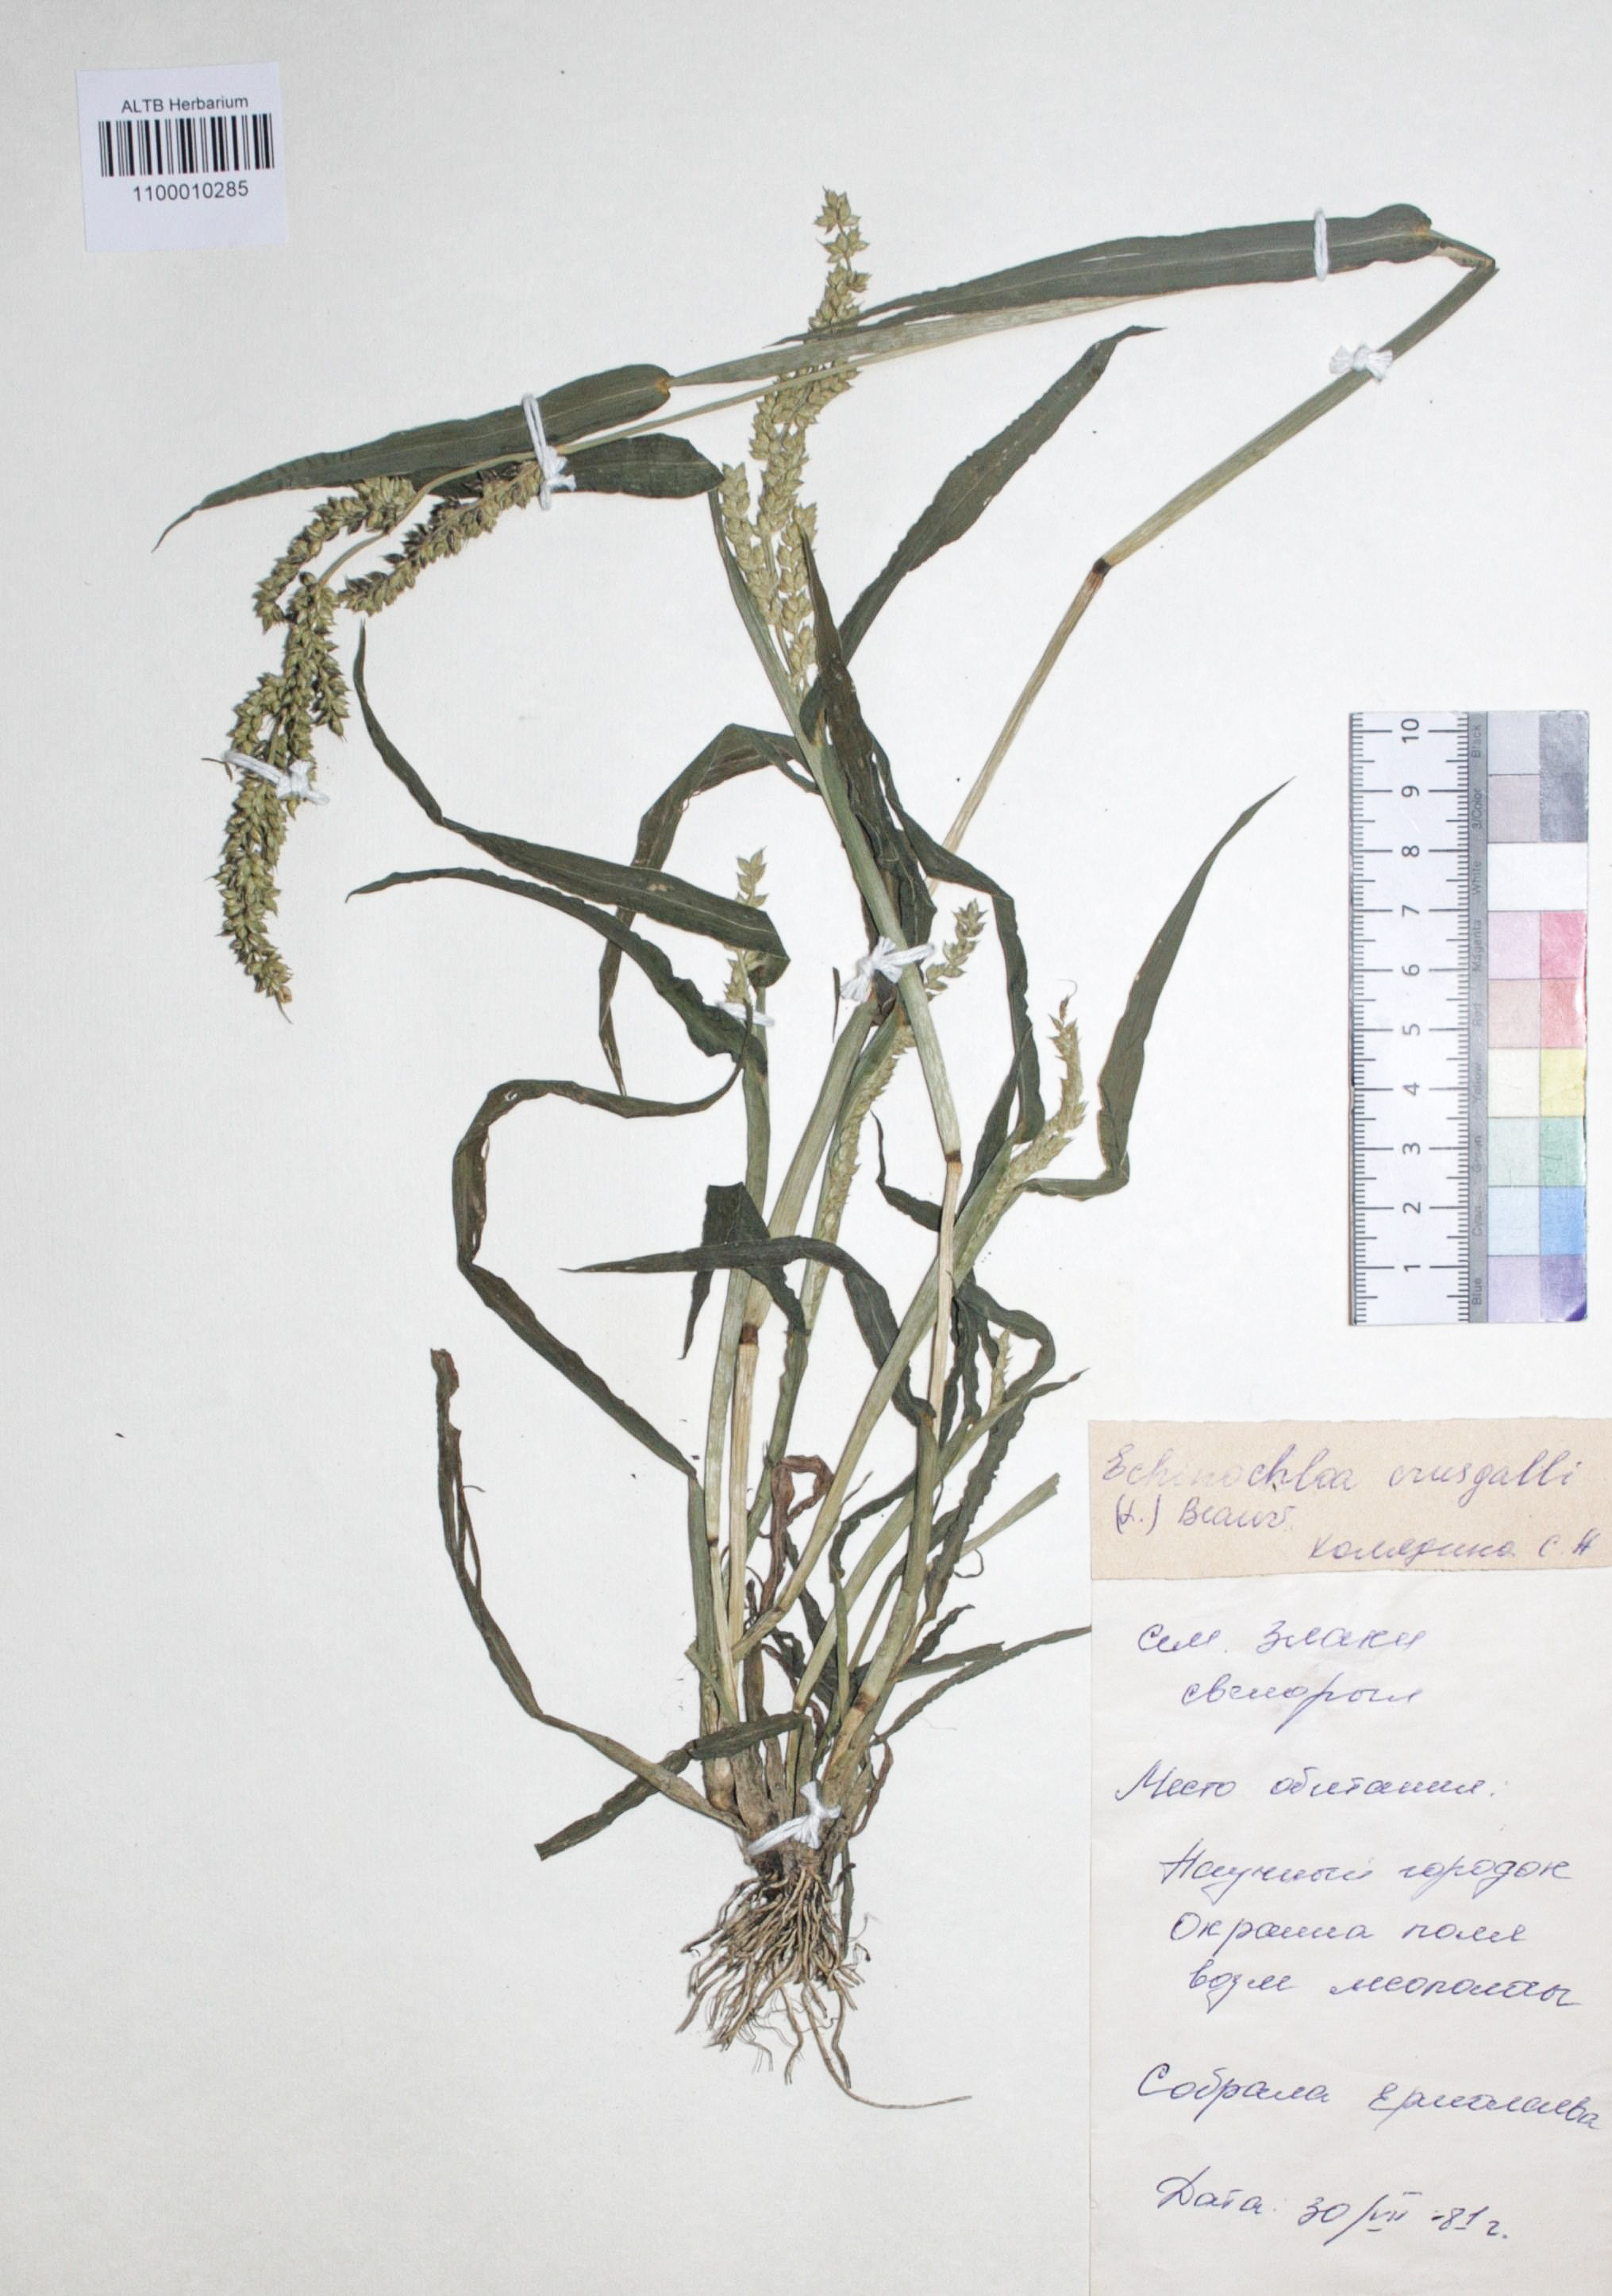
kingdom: Plantae
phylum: Tracheophyta
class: Liliopsida
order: Poales
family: Poaceae
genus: Echinochloa
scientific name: Echinochloa crus-galli
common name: Cockspur
